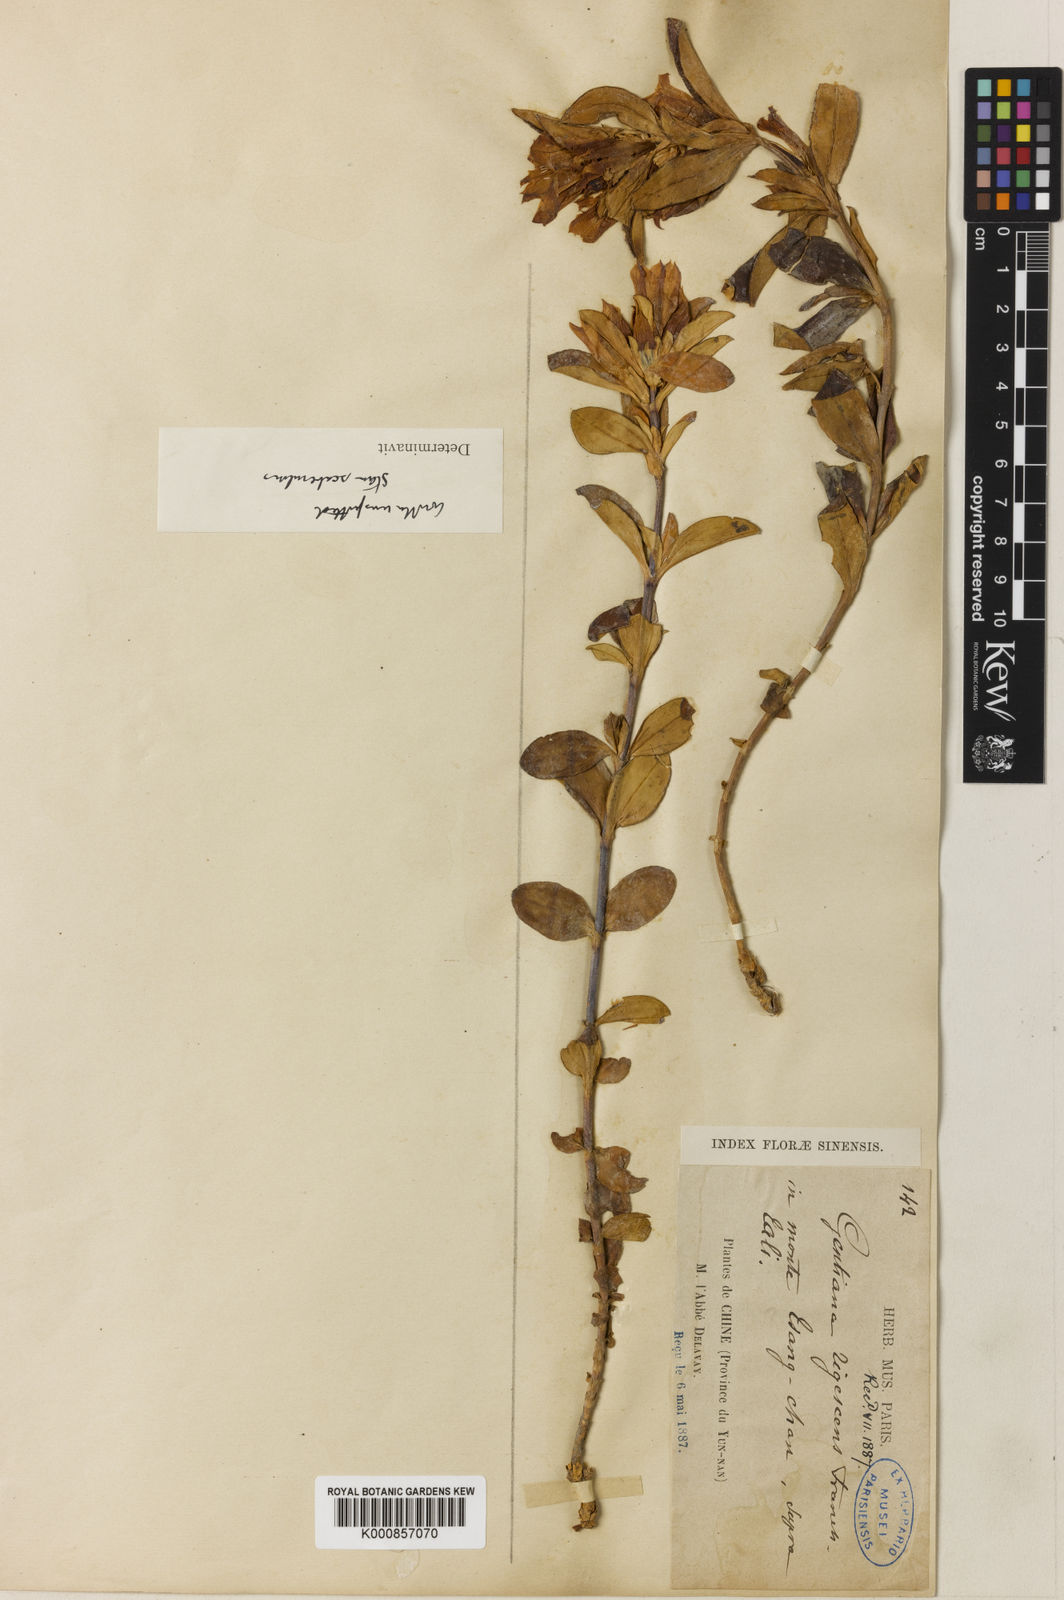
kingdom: Plantae
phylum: Tracheophyta
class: Magnoliopsida
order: Gentianales
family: Gentianaceae
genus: Gentiana
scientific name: Gentiana crassa
